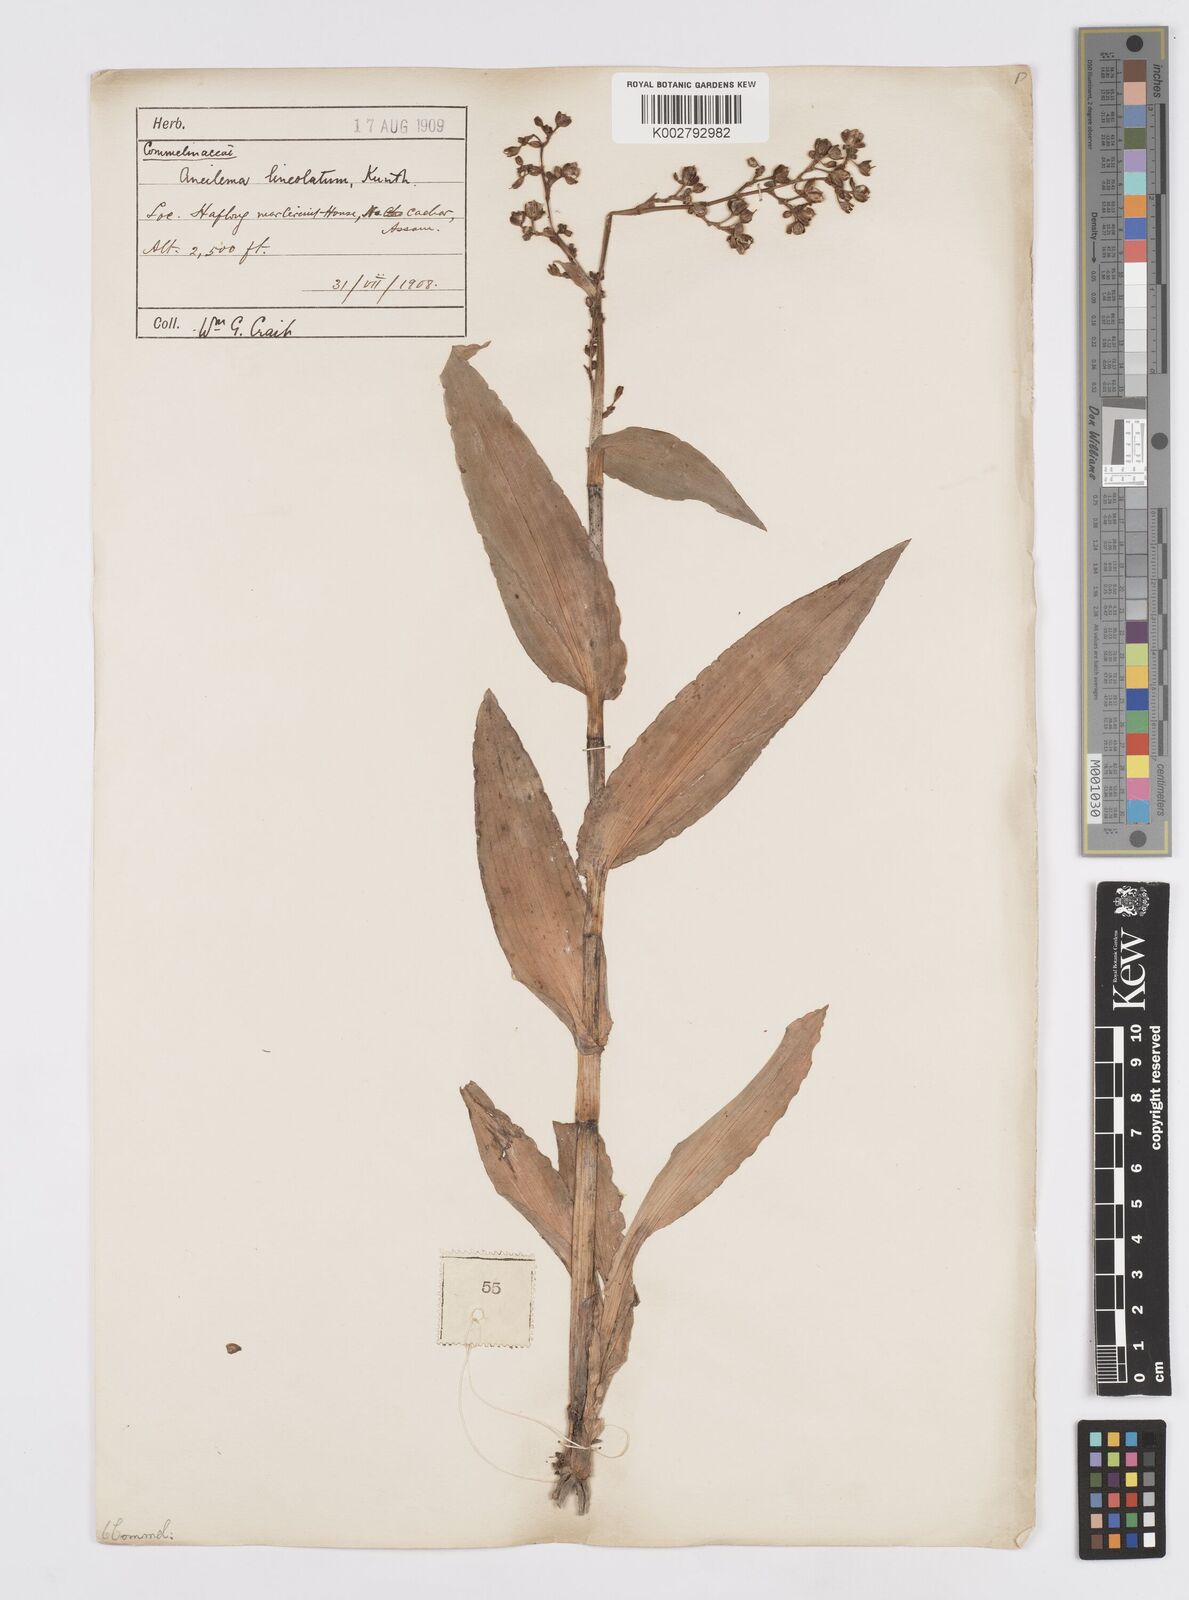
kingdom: Plantae
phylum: Tracheophyta
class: Liliopsida
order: Commelinales
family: Commelinaceae
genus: Murdannia
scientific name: Murdannia
